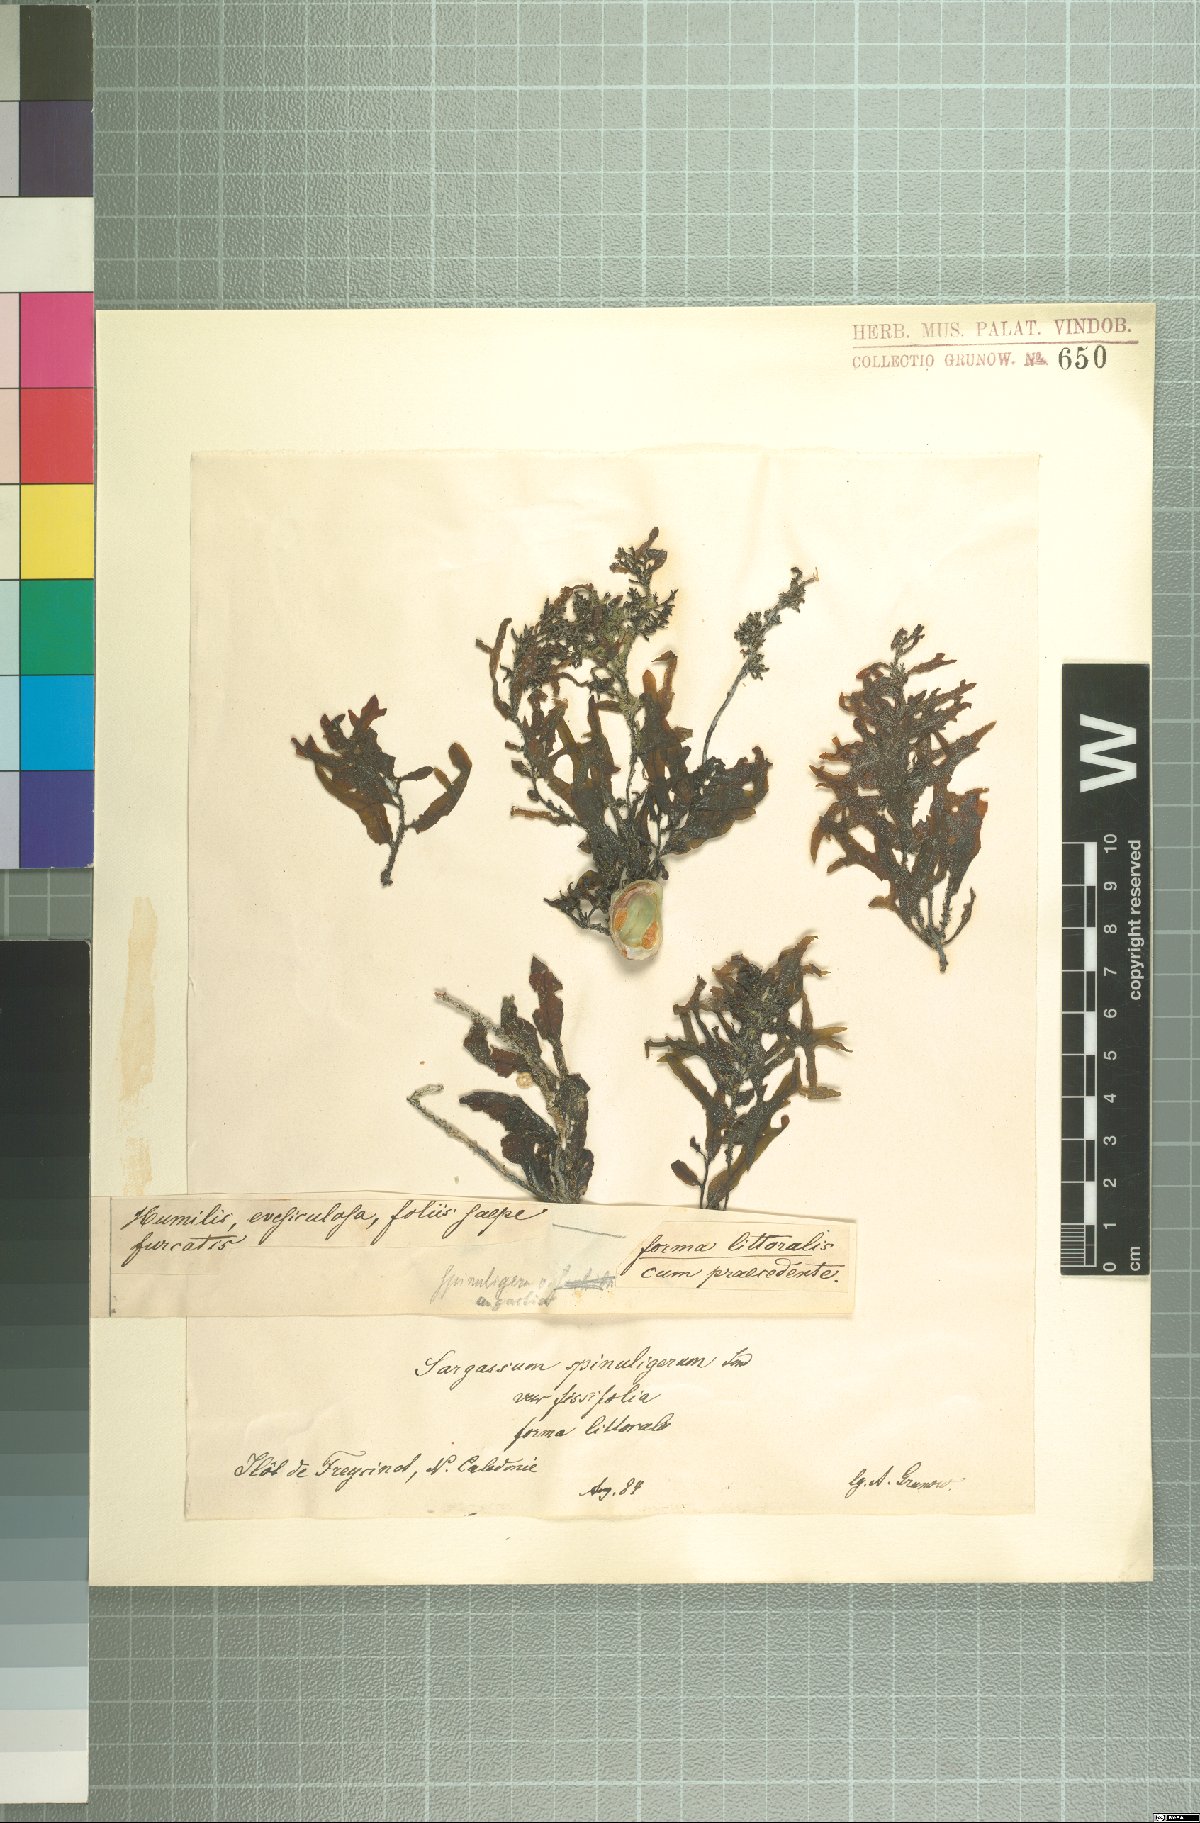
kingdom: Chromista
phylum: Ochrophyta
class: Phaeophyceae
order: Fucales
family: Sargassaceae
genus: Sargassum
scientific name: Sargassum
